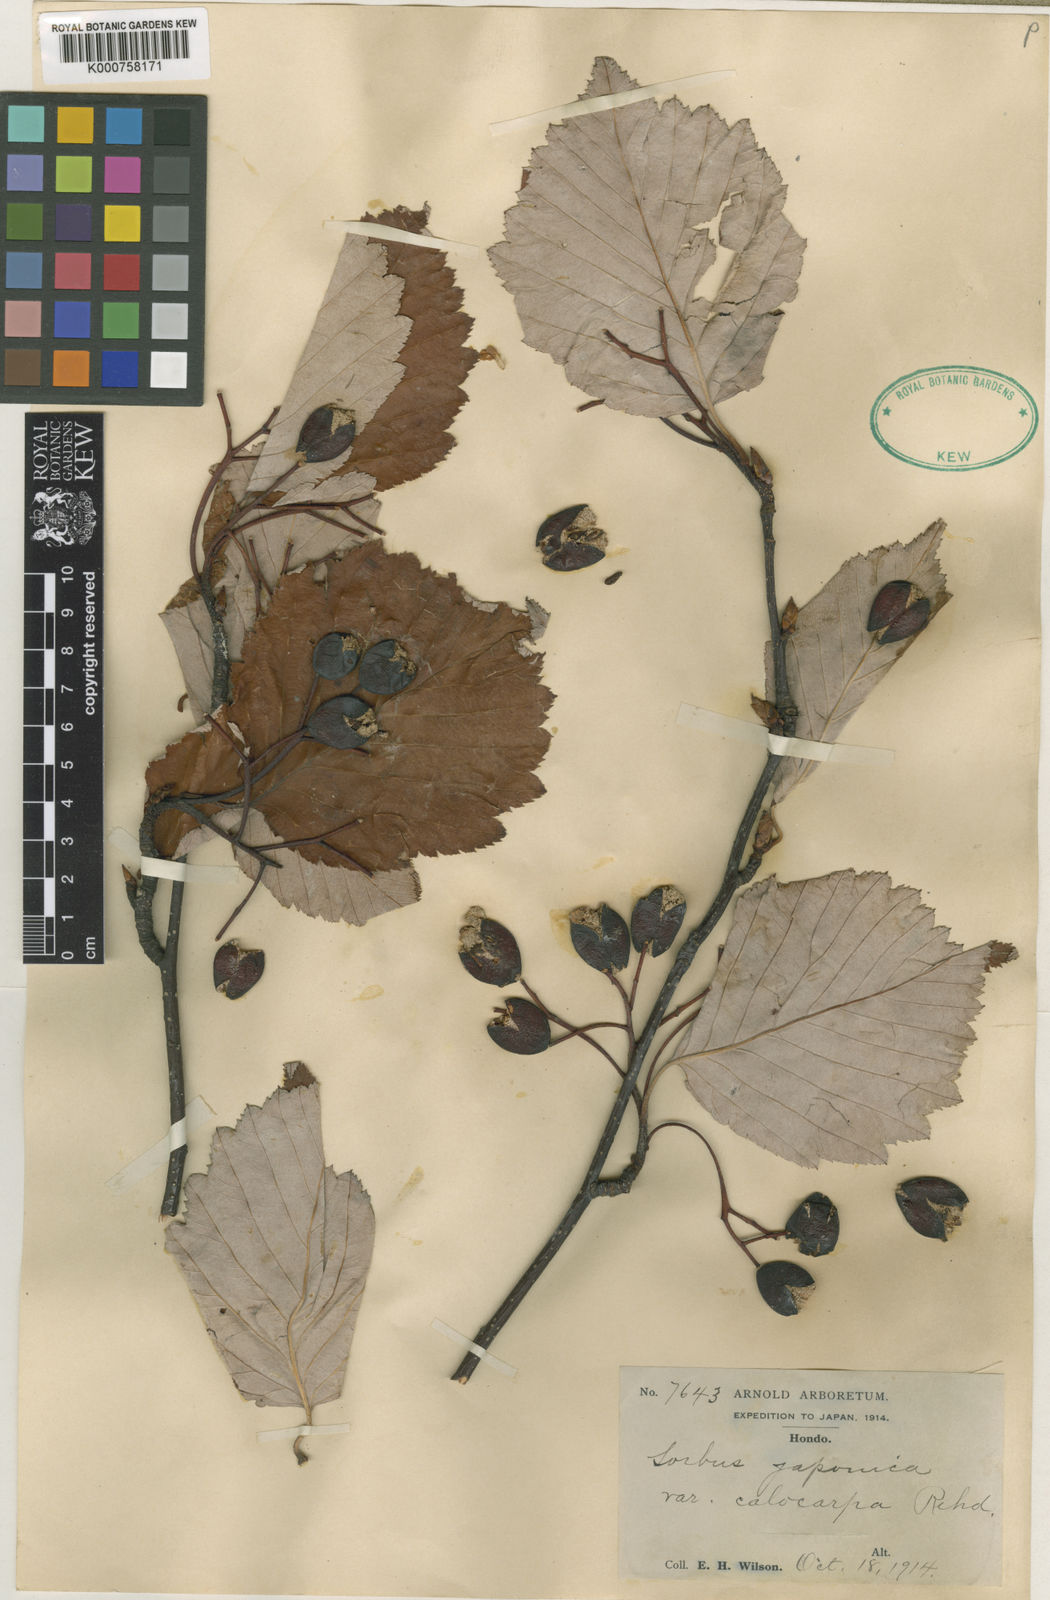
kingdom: Plantae
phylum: Tracheophyta
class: Magnoliopsida
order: Rosales
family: Rosaceae
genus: Sorbus
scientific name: Sorbus
